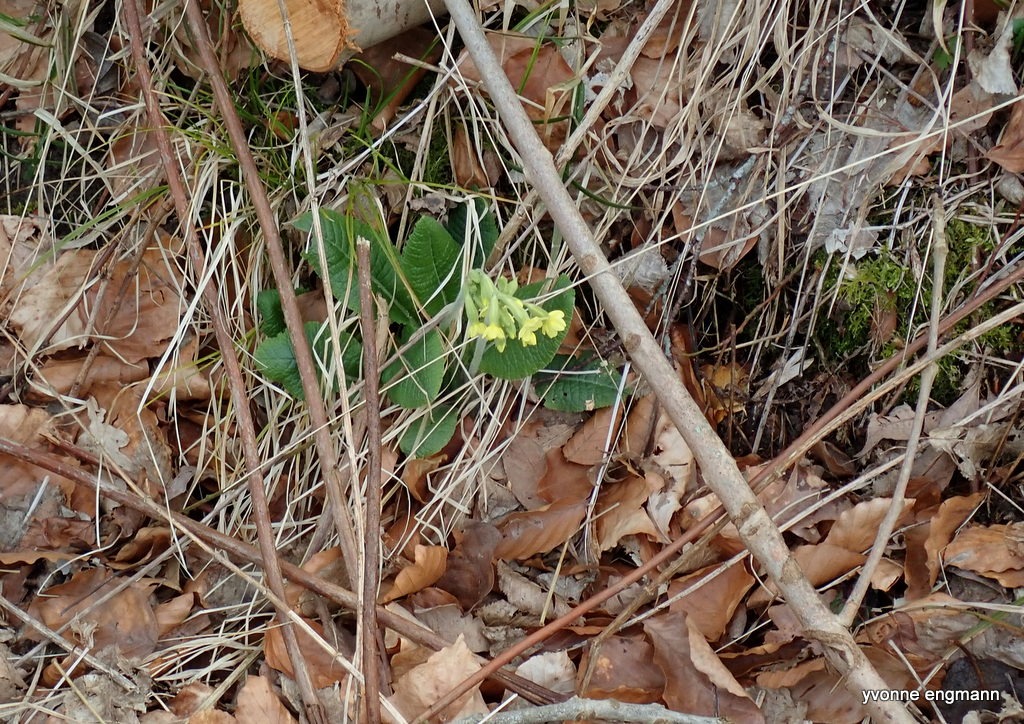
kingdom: Plantae
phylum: Tracheophyta
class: Magnoliopsida
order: Ericales
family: Primulaceae
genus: Primula
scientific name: Primula elatior
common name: Fladkravet kodriver
